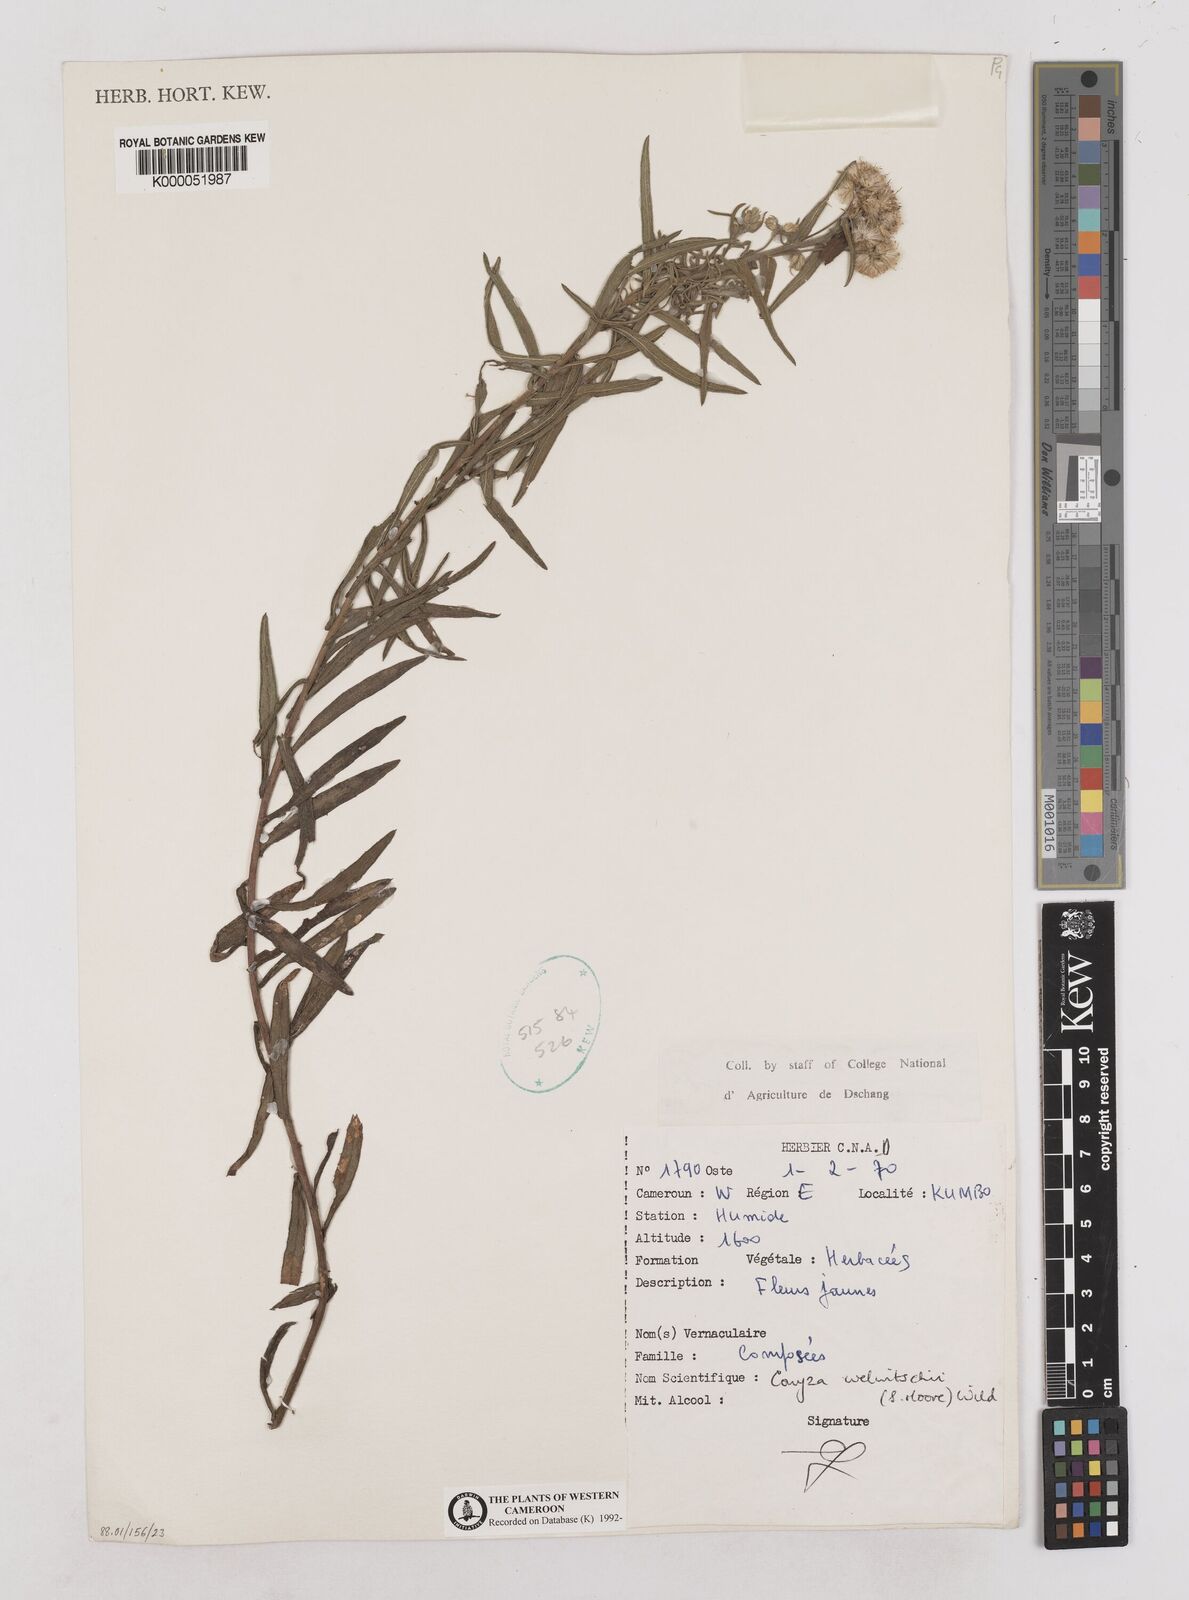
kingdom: Plantae
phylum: Tracheophyta
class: Magnoliopsida
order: Asterales
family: Asteraceae
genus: Nidorella
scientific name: Nidorella welwitschii
